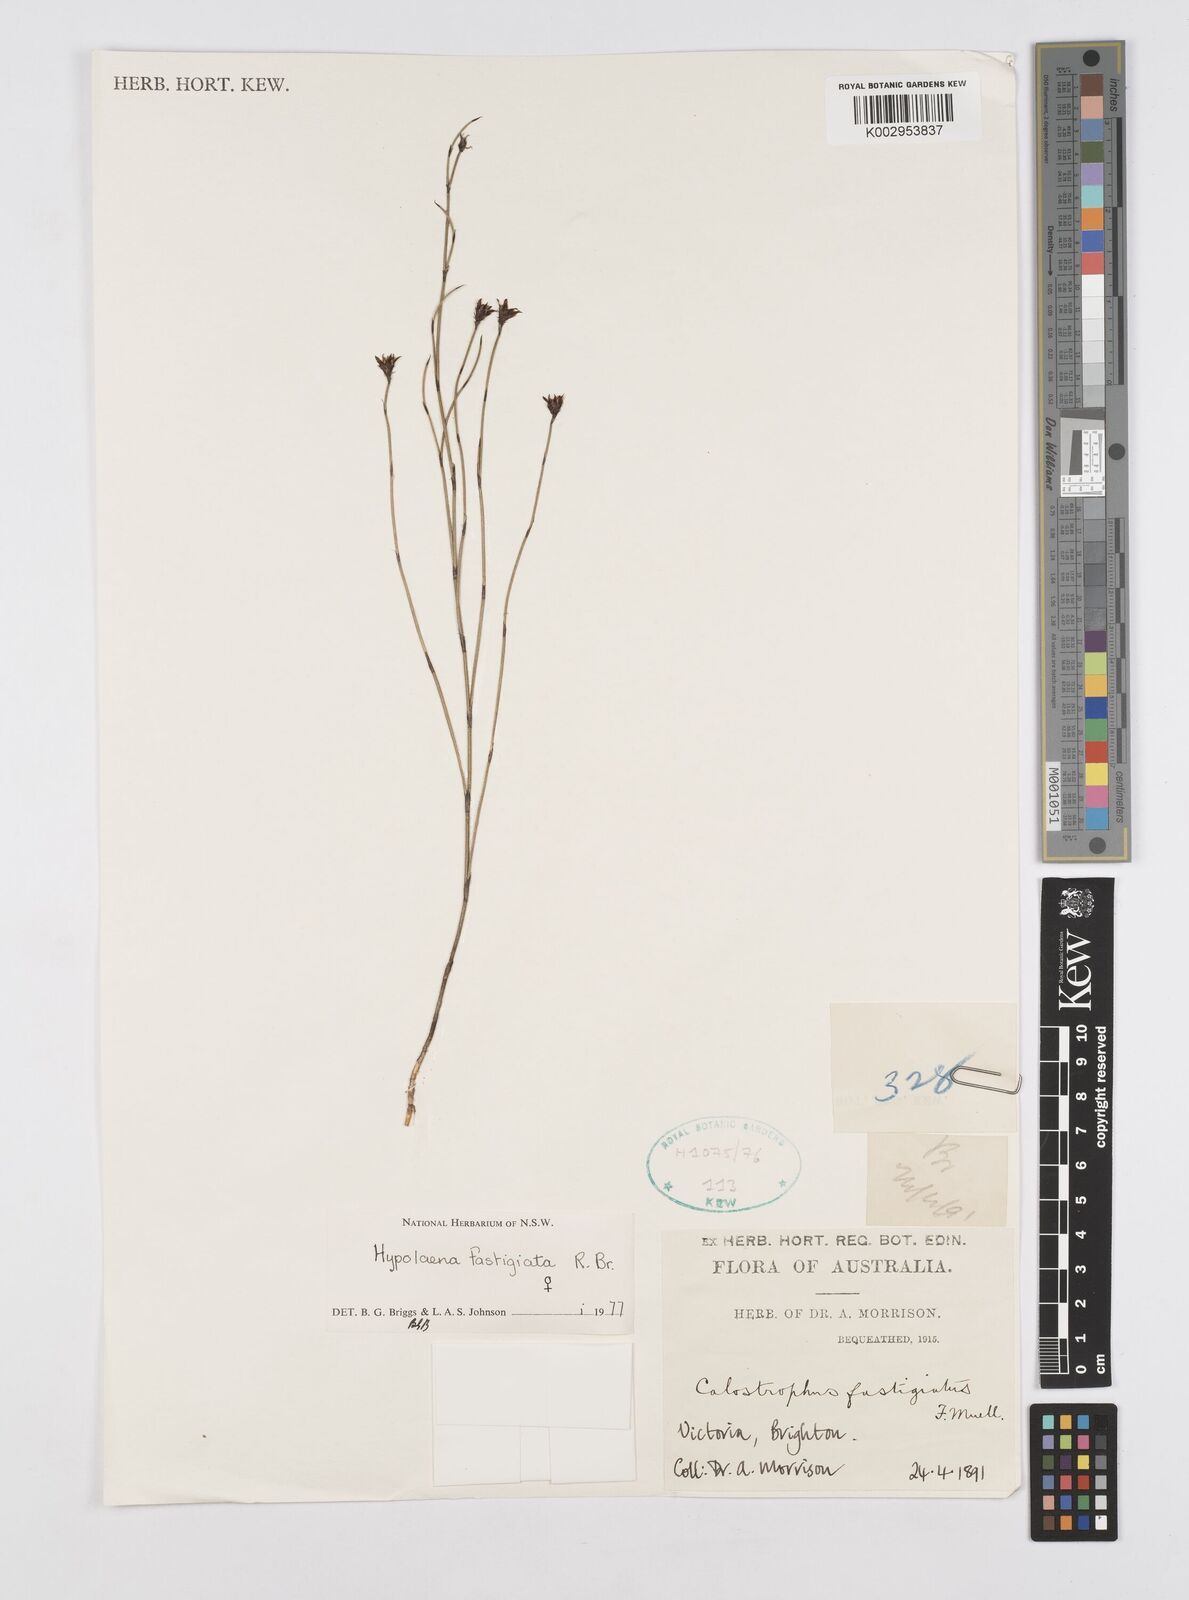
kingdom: Plantae
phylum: Tracheophyta
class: Liliopsida
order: Poales
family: Restionaceae
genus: Hypolaena
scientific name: Hypolaena fastigiata
